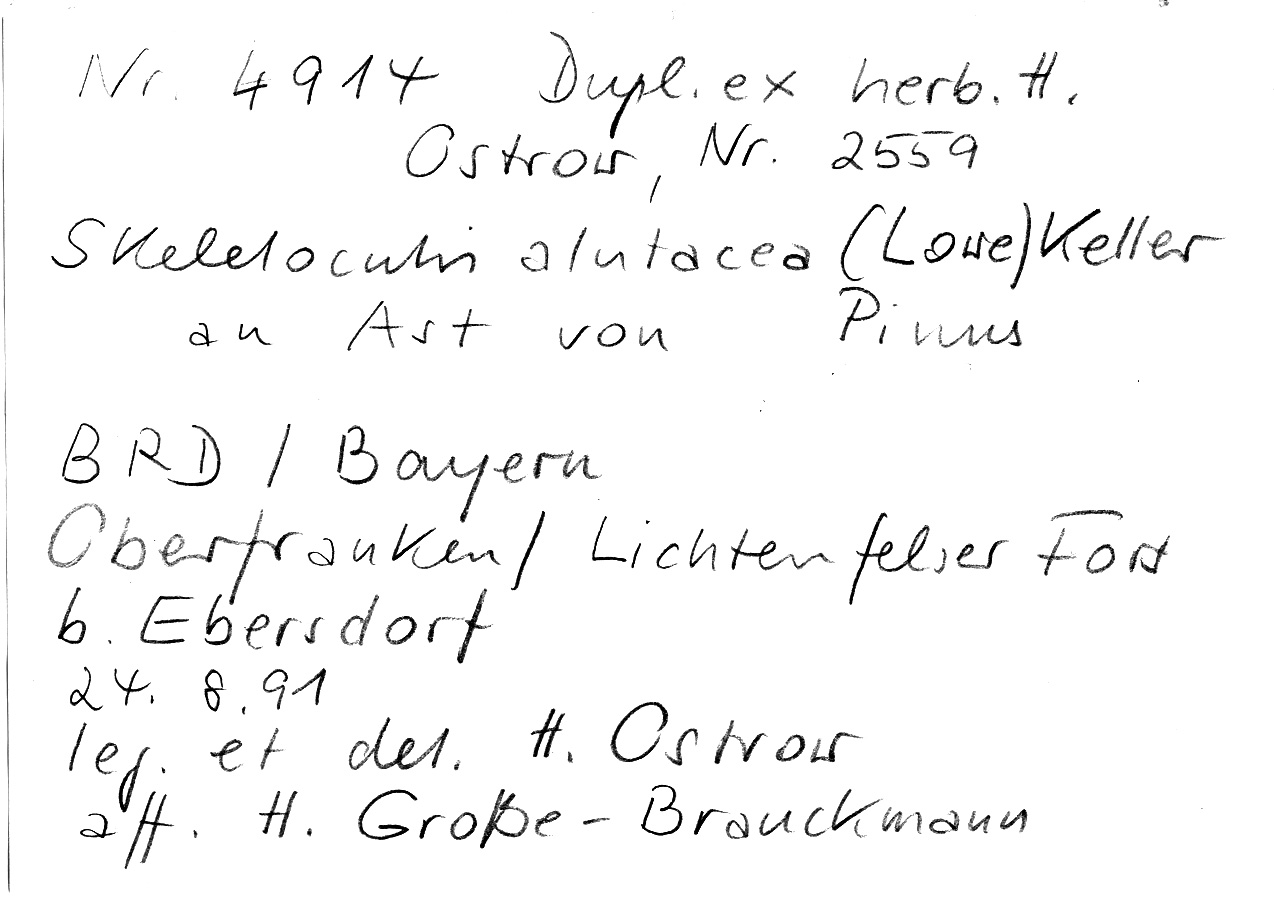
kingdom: Plantae
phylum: Tracheophyta
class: Pinopsida
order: Pinales
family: Pinaceae
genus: Pinus
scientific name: Pinus
